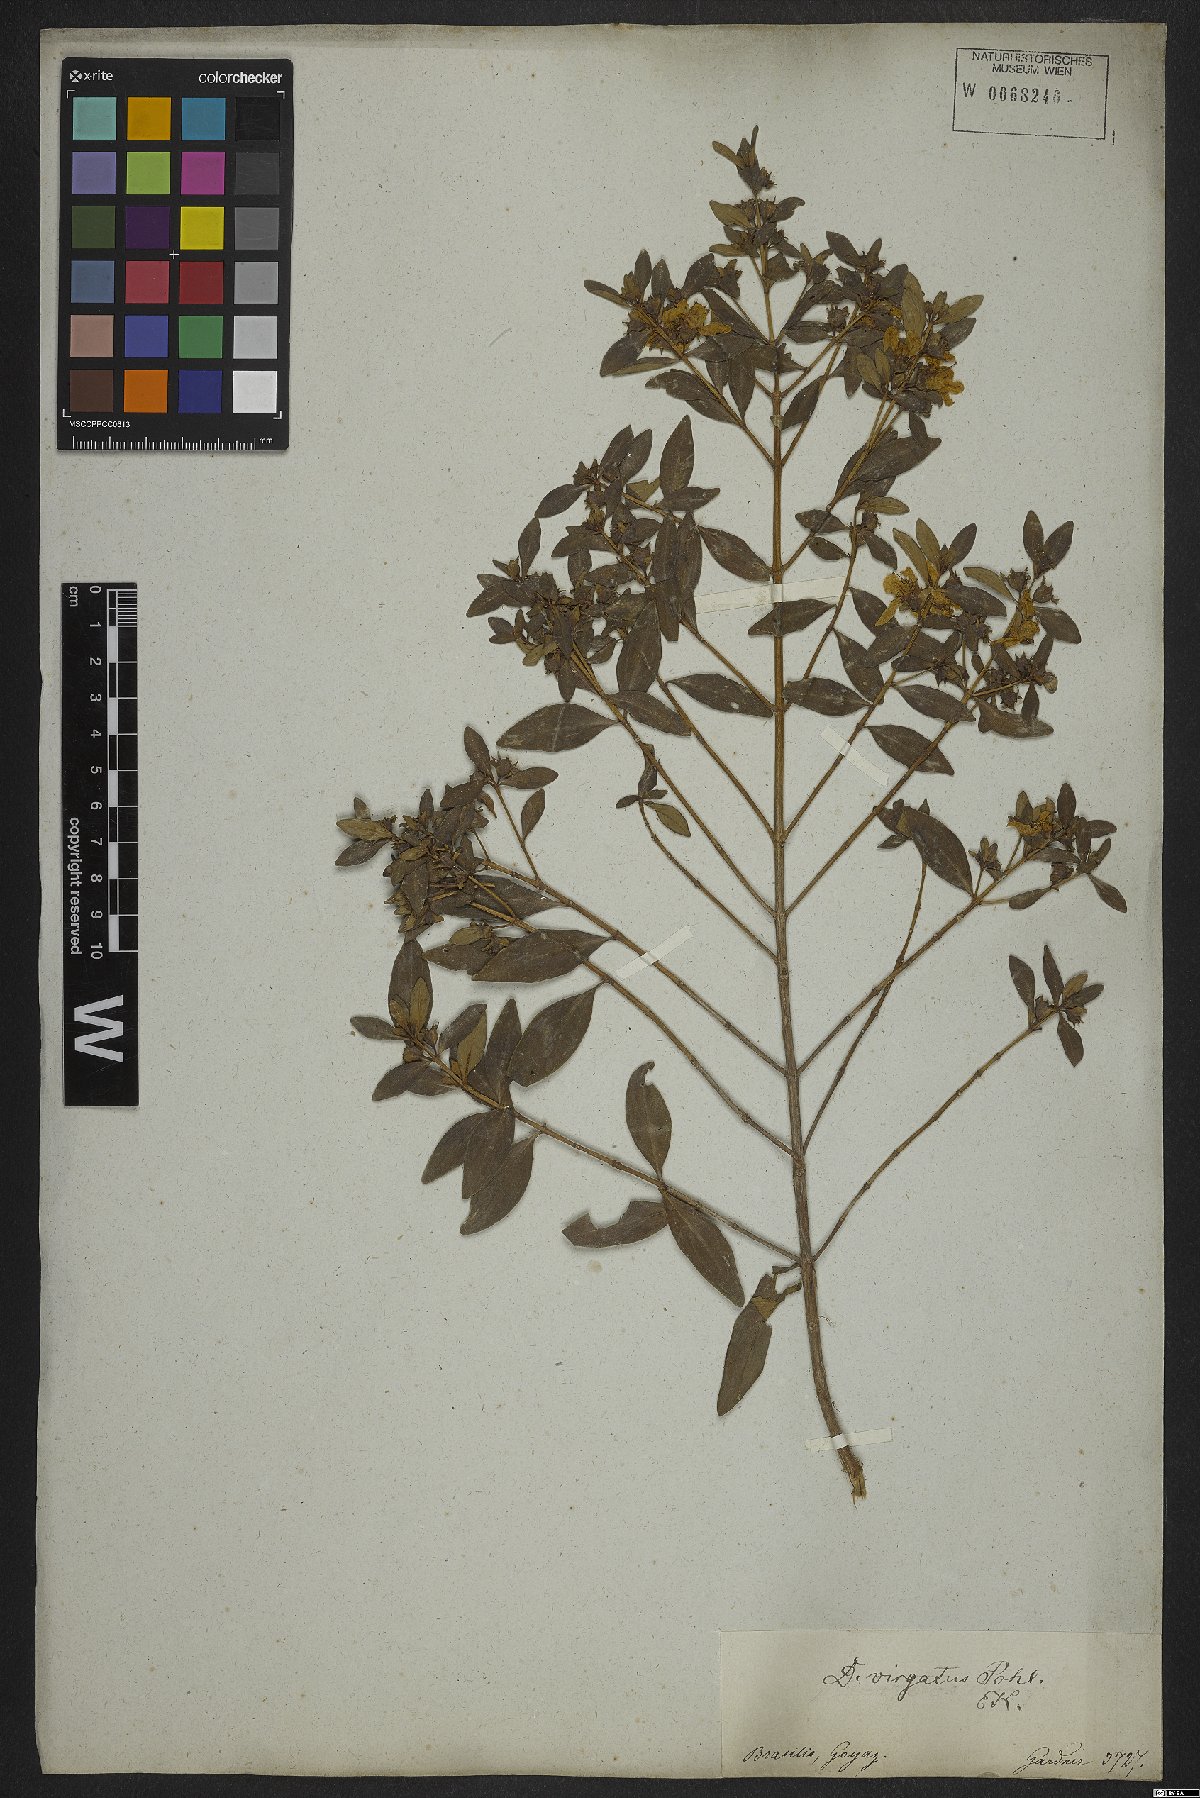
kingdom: Plantae
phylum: Tracheophyta
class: Magnoliopsida
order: Myrtales
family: Lythraceae
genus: Diplusodon
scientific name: Diplusodon virgatus
